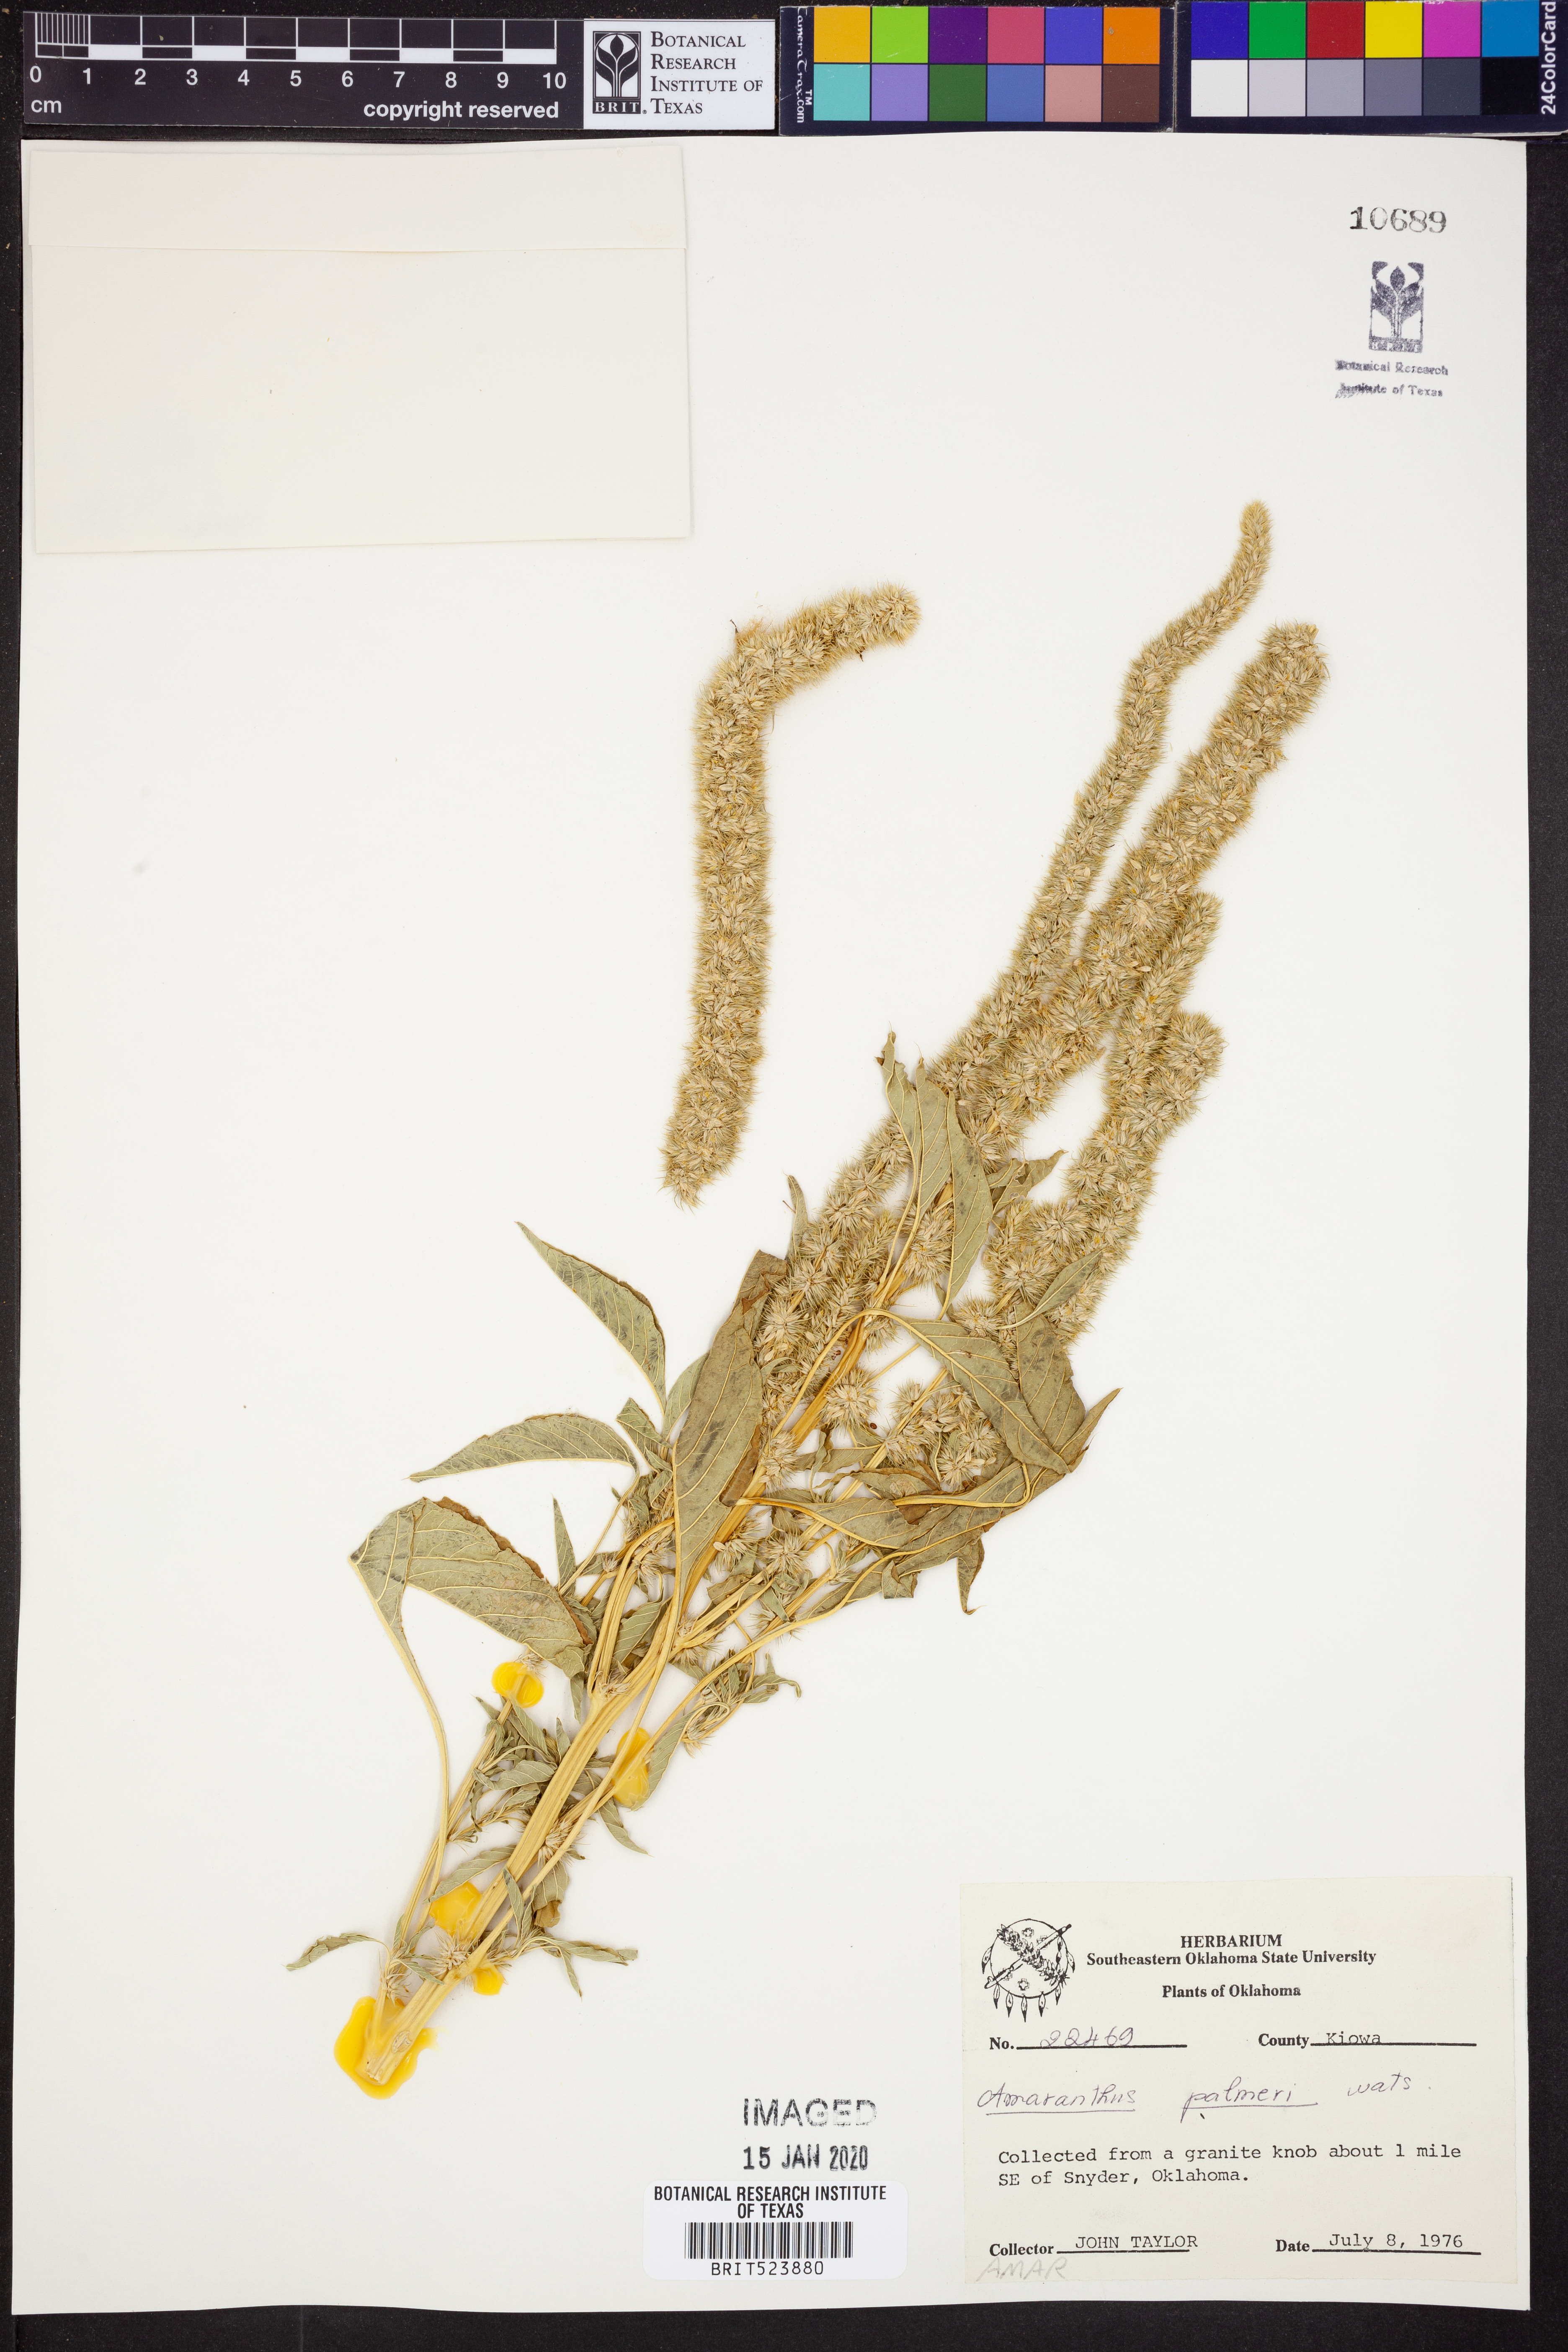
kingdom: Plantae
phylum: Tracheophyta
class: Magnoliopsida
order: Caryophyllales
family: Amaranthaceae
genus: Amaranthus
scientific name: Amaranthus palmeri
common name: Dioecious amaranth
